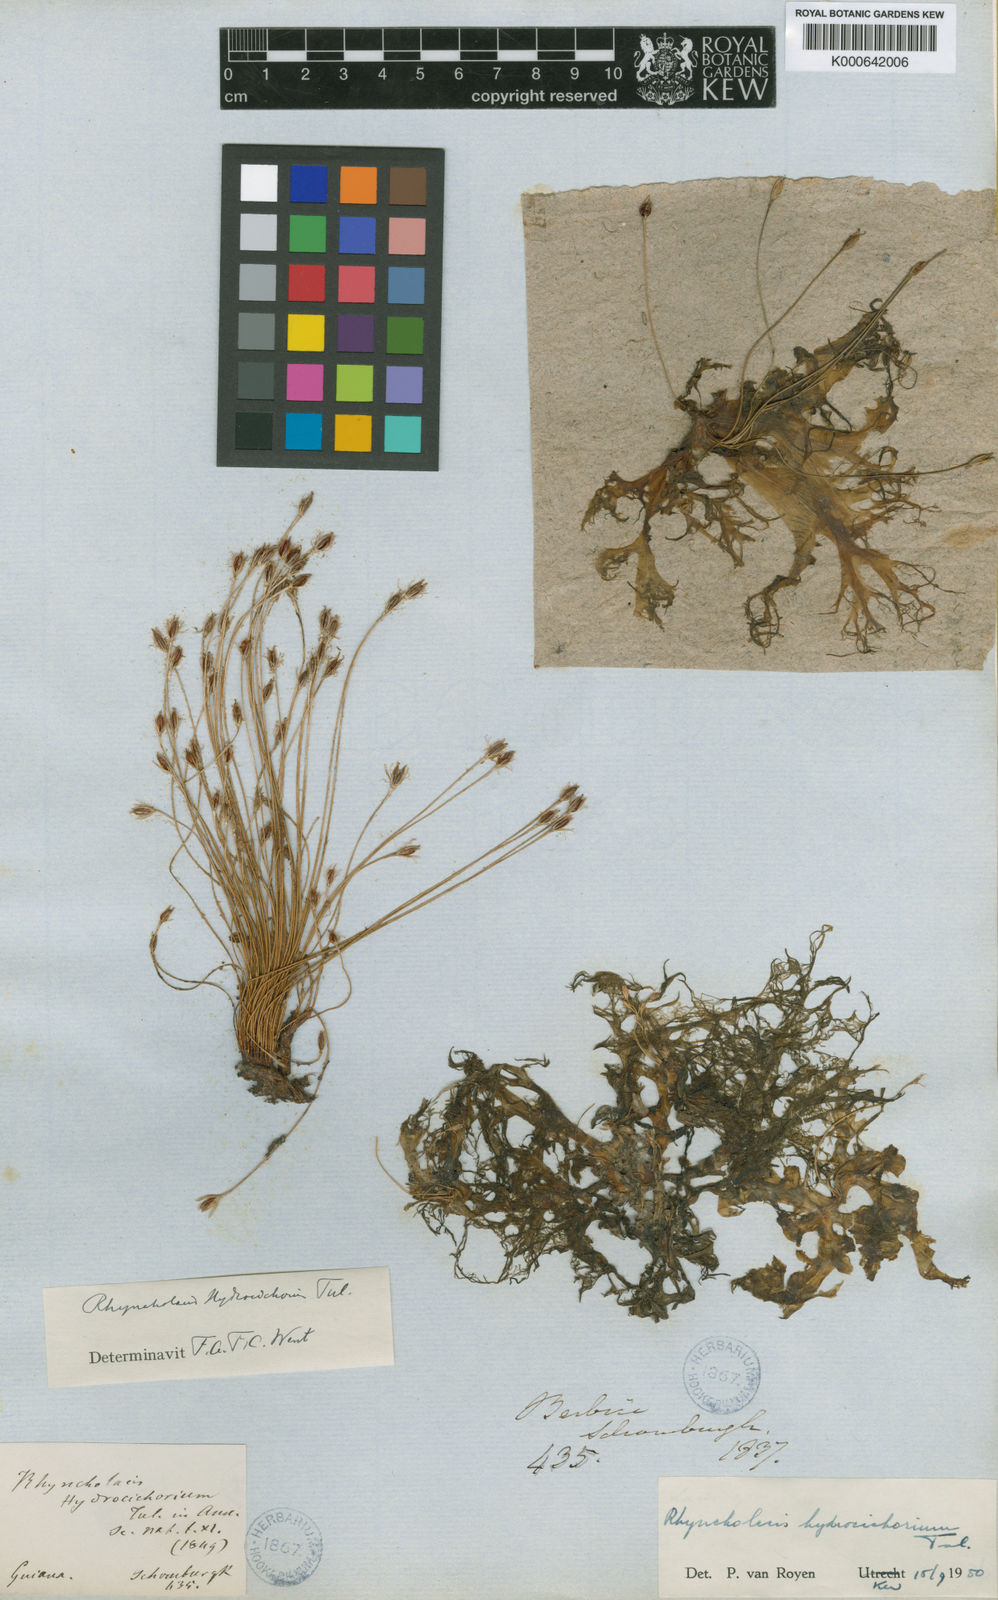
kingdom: Plantae
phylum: Tracheophyta
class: Magnoliopsida
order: Malpighiales
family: Podostemaceae
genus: Rhyncholacis
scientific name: Rhyncholacis hydrocichorium
